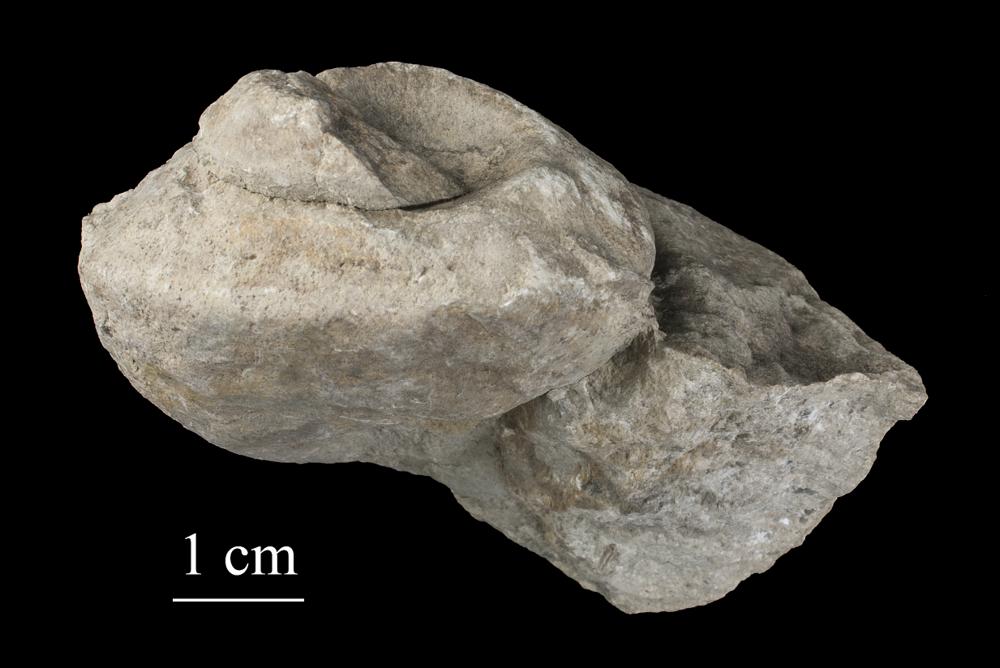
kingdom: Animalia
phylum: Mollusca
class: Gastropoda
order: Pleurotomariida
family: Phymatopleuridae
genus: Worthenia
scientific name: Worthenia
